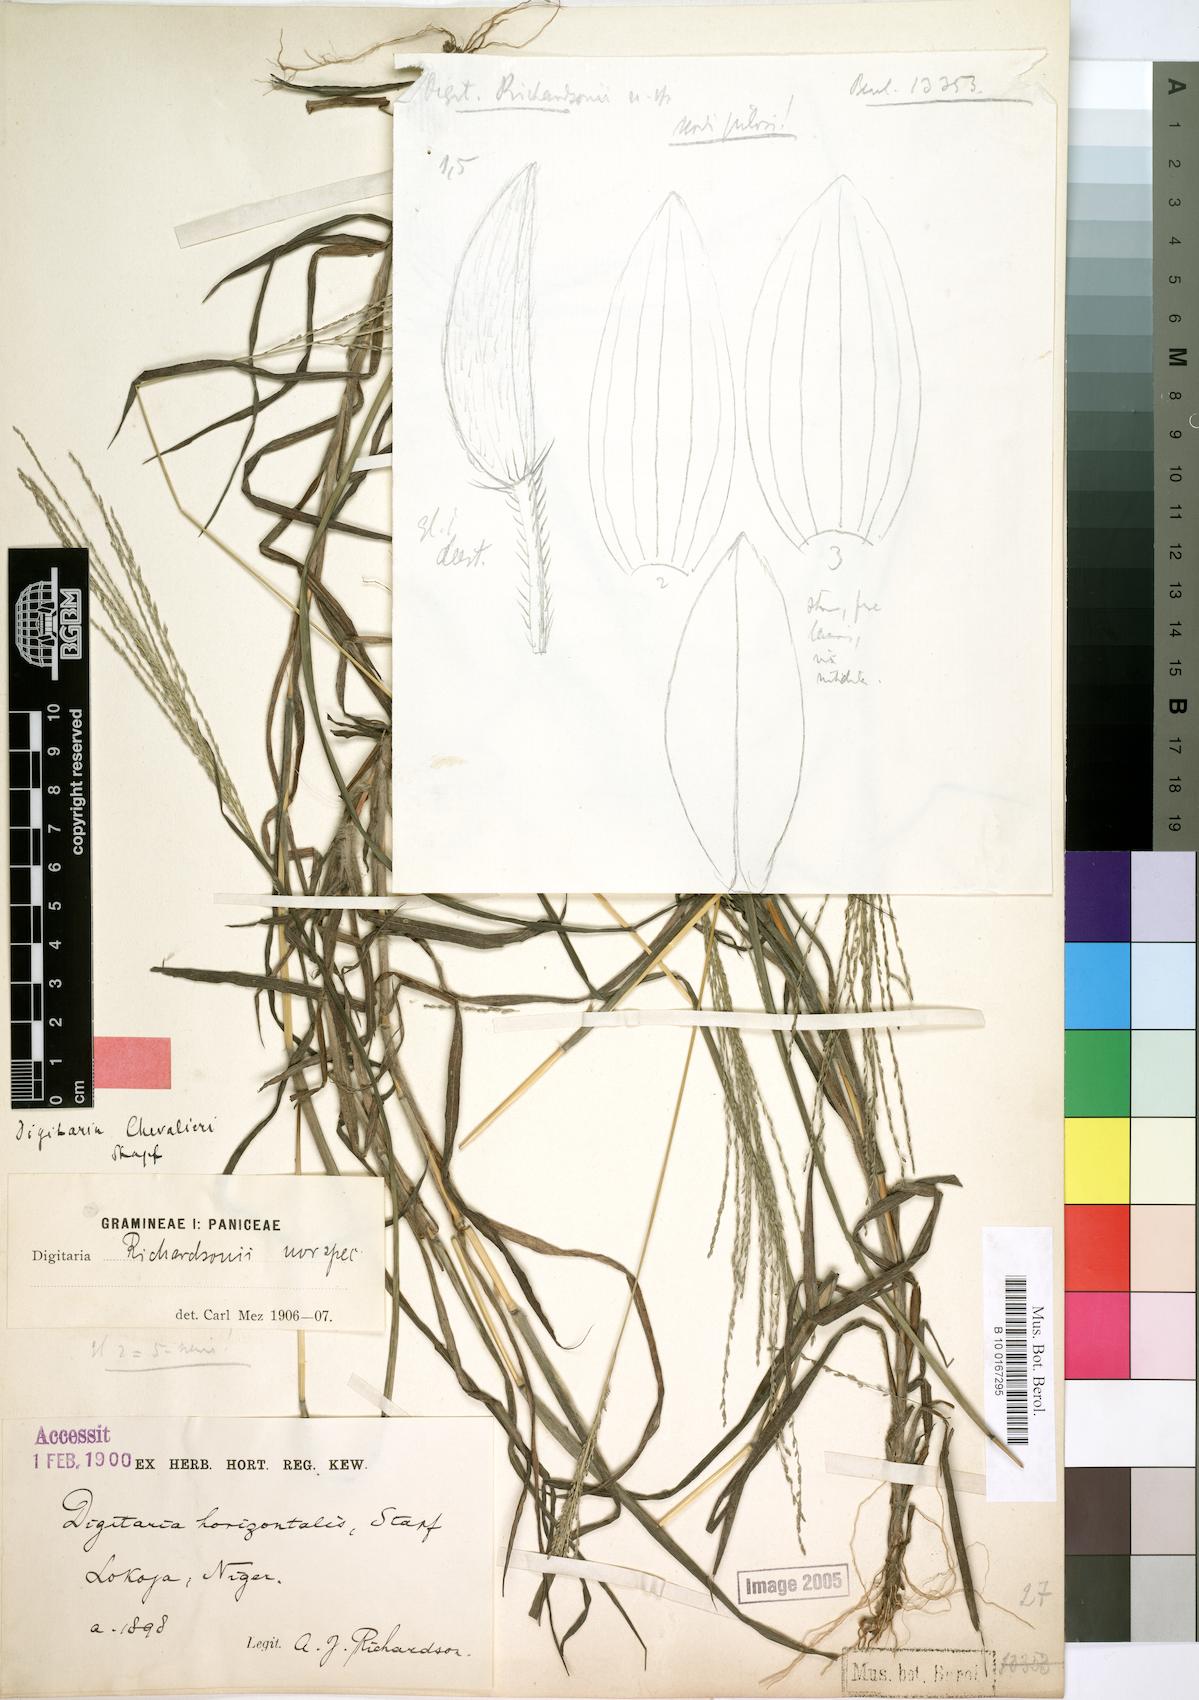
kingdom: Plantae
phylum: Tracheophyta
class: Liliopsida
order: Poales
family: Poaceae
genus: Digitaria
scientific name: Digitaria leptorhachis
